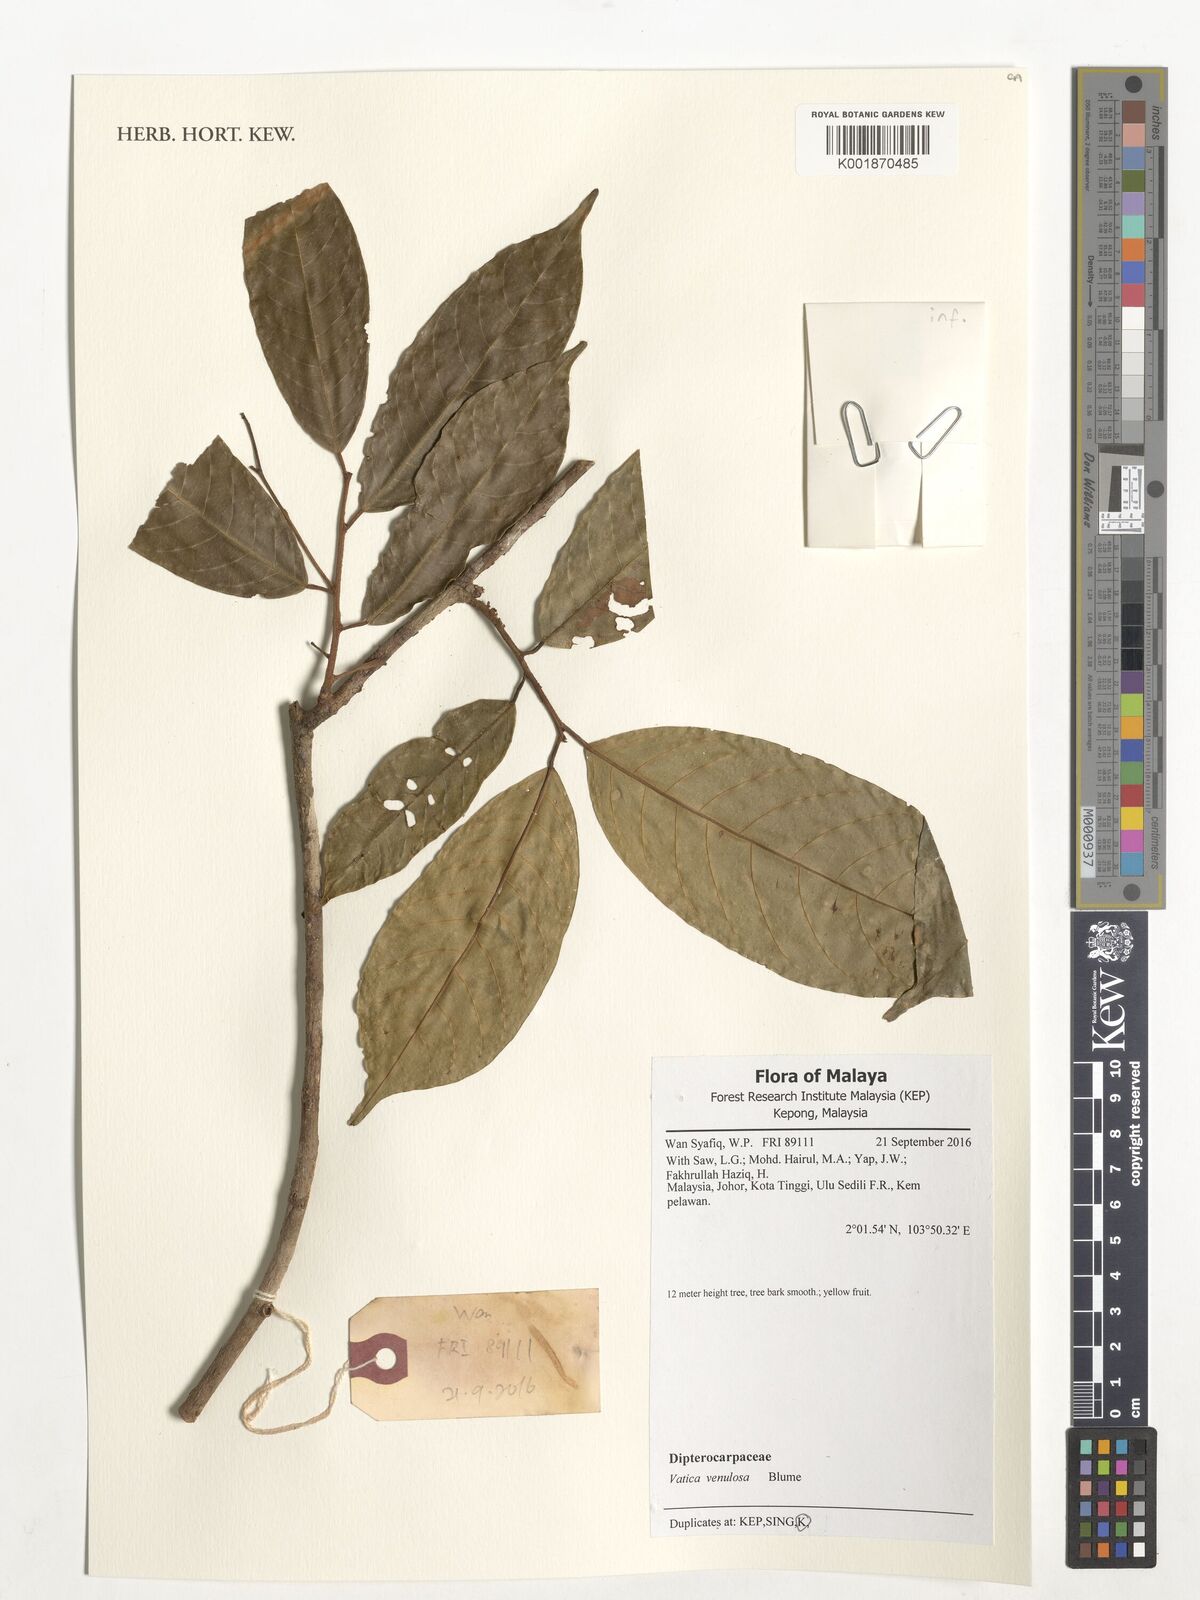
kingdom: Plantae
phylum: Tracheophyta
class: Magnoliopsida
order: Malvales
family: Dipterocarpaceae
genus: Vatica
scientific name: Vatica venulosa
